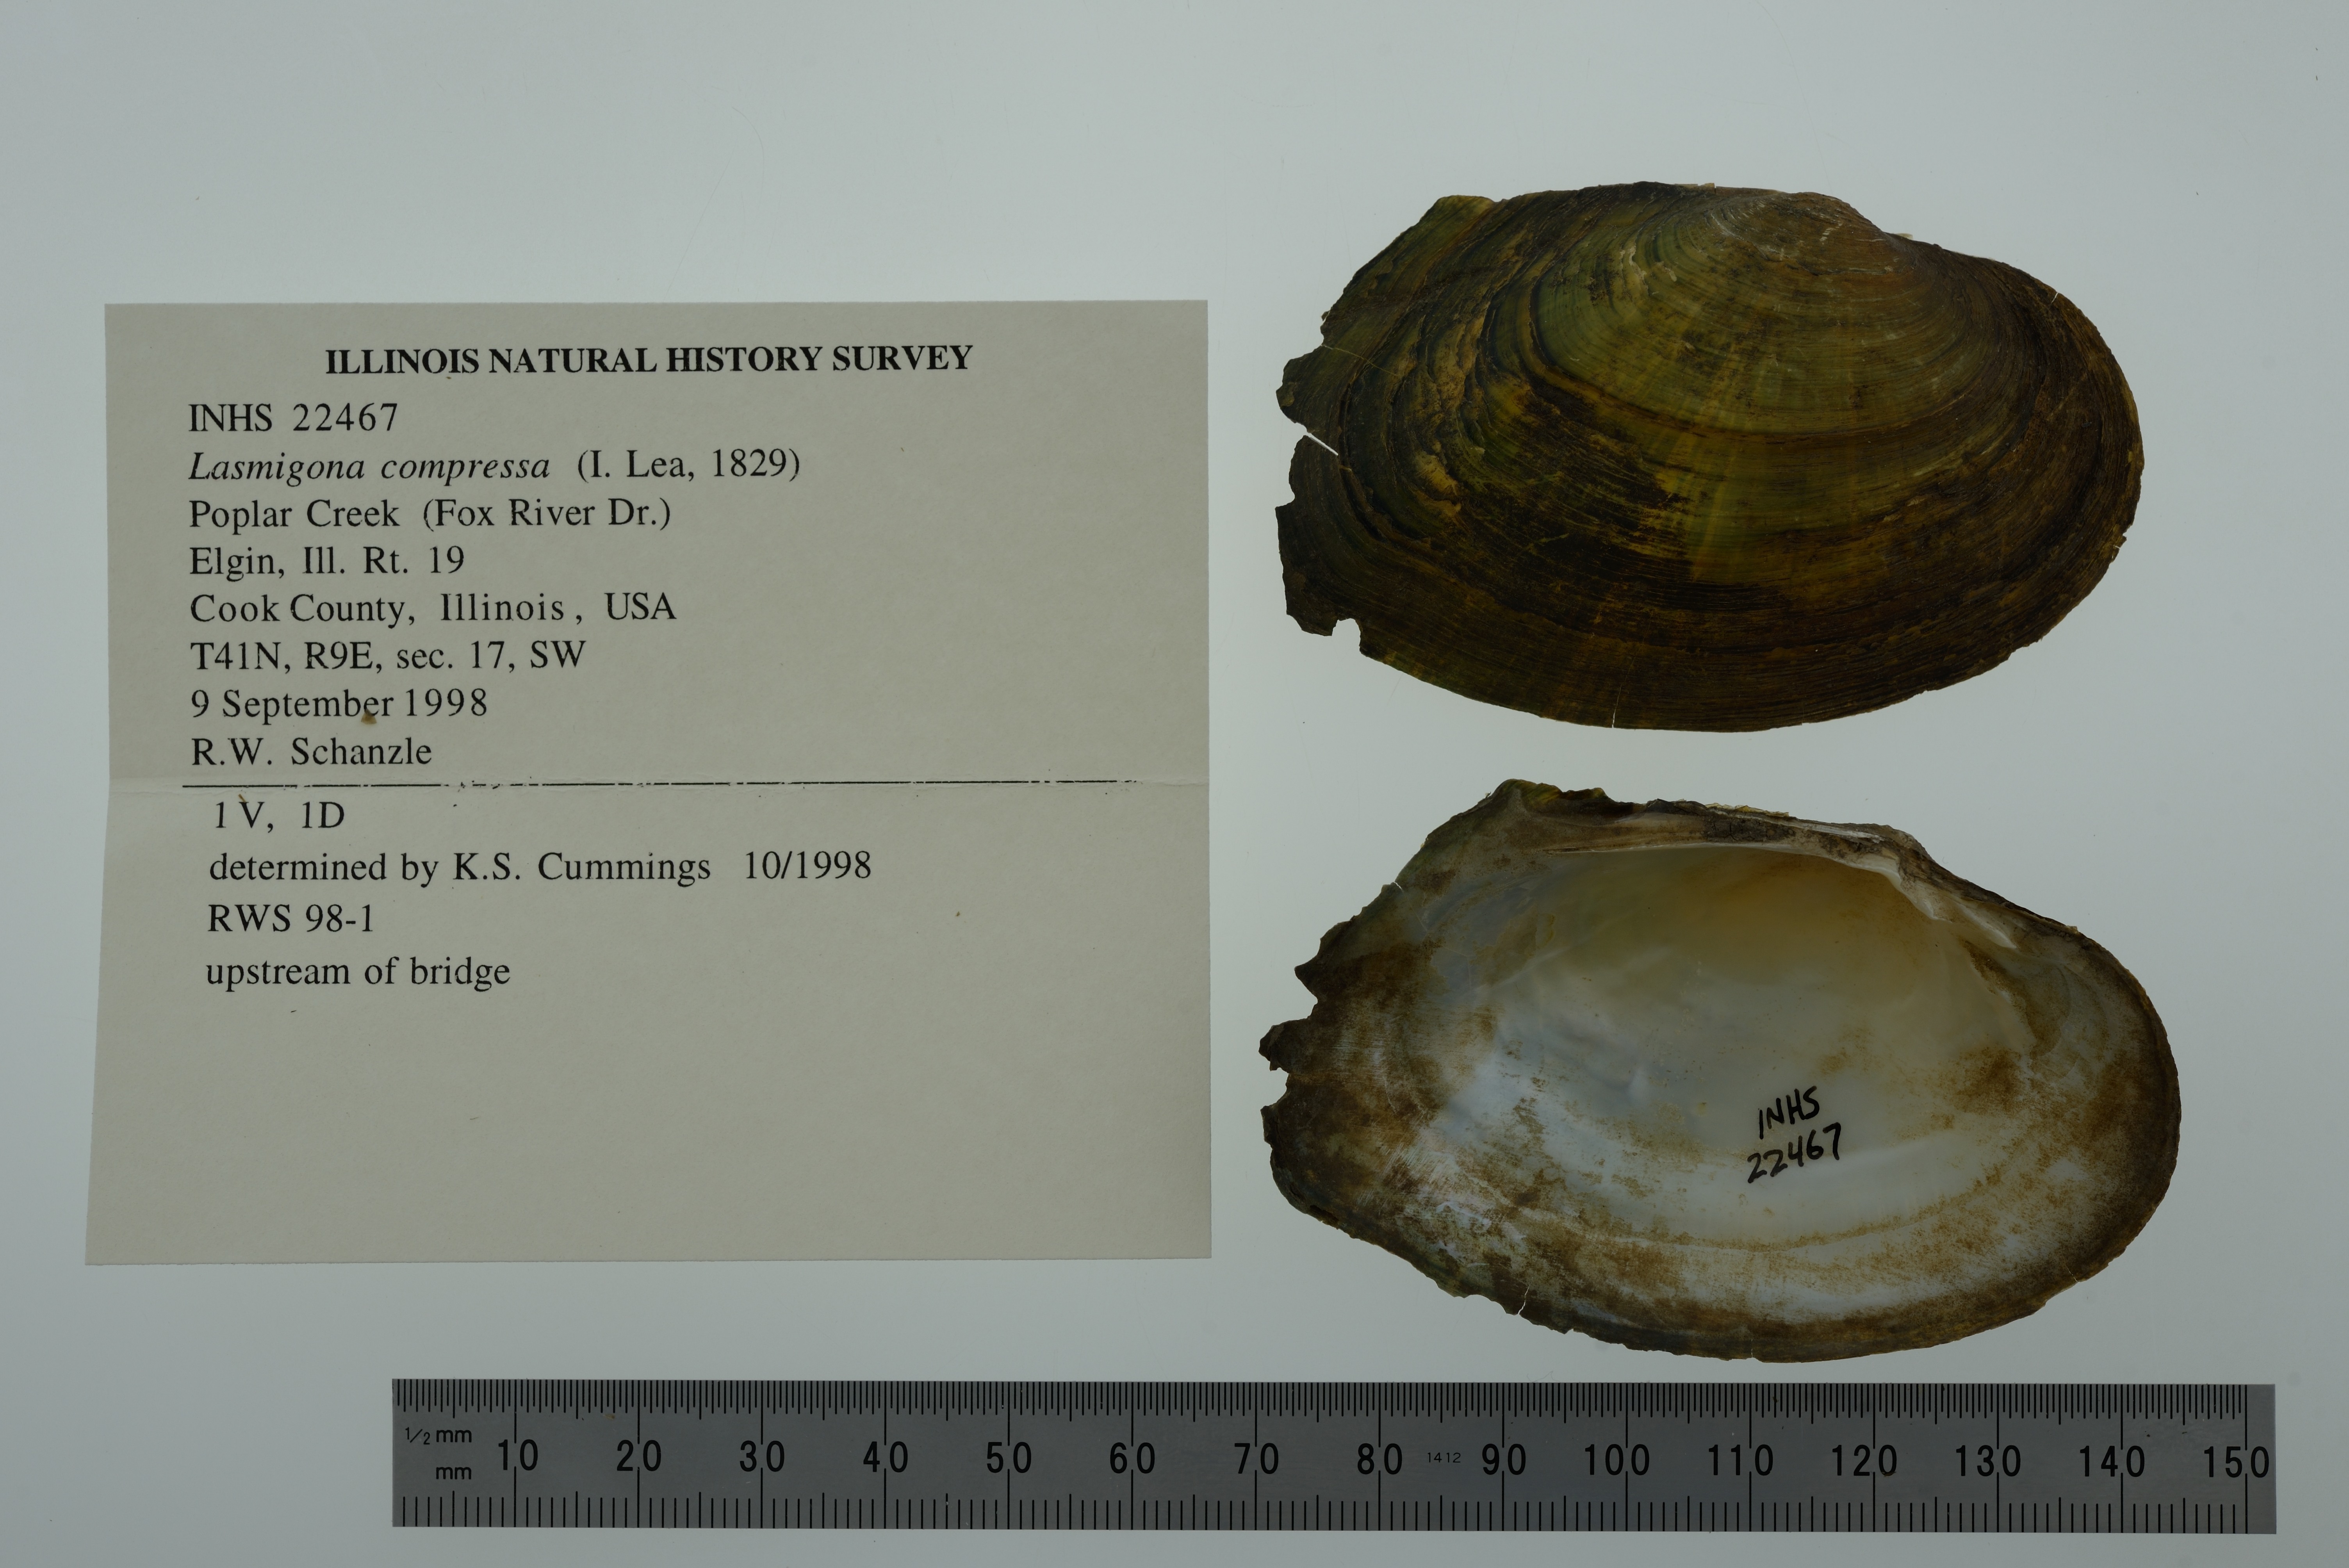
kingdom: Animalia
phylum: Mollusca
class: Bivalvia
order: Unionida
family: Unionidae
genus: Lasmigona
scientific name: Lasmigona compressa
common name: Creek heelsplitter
